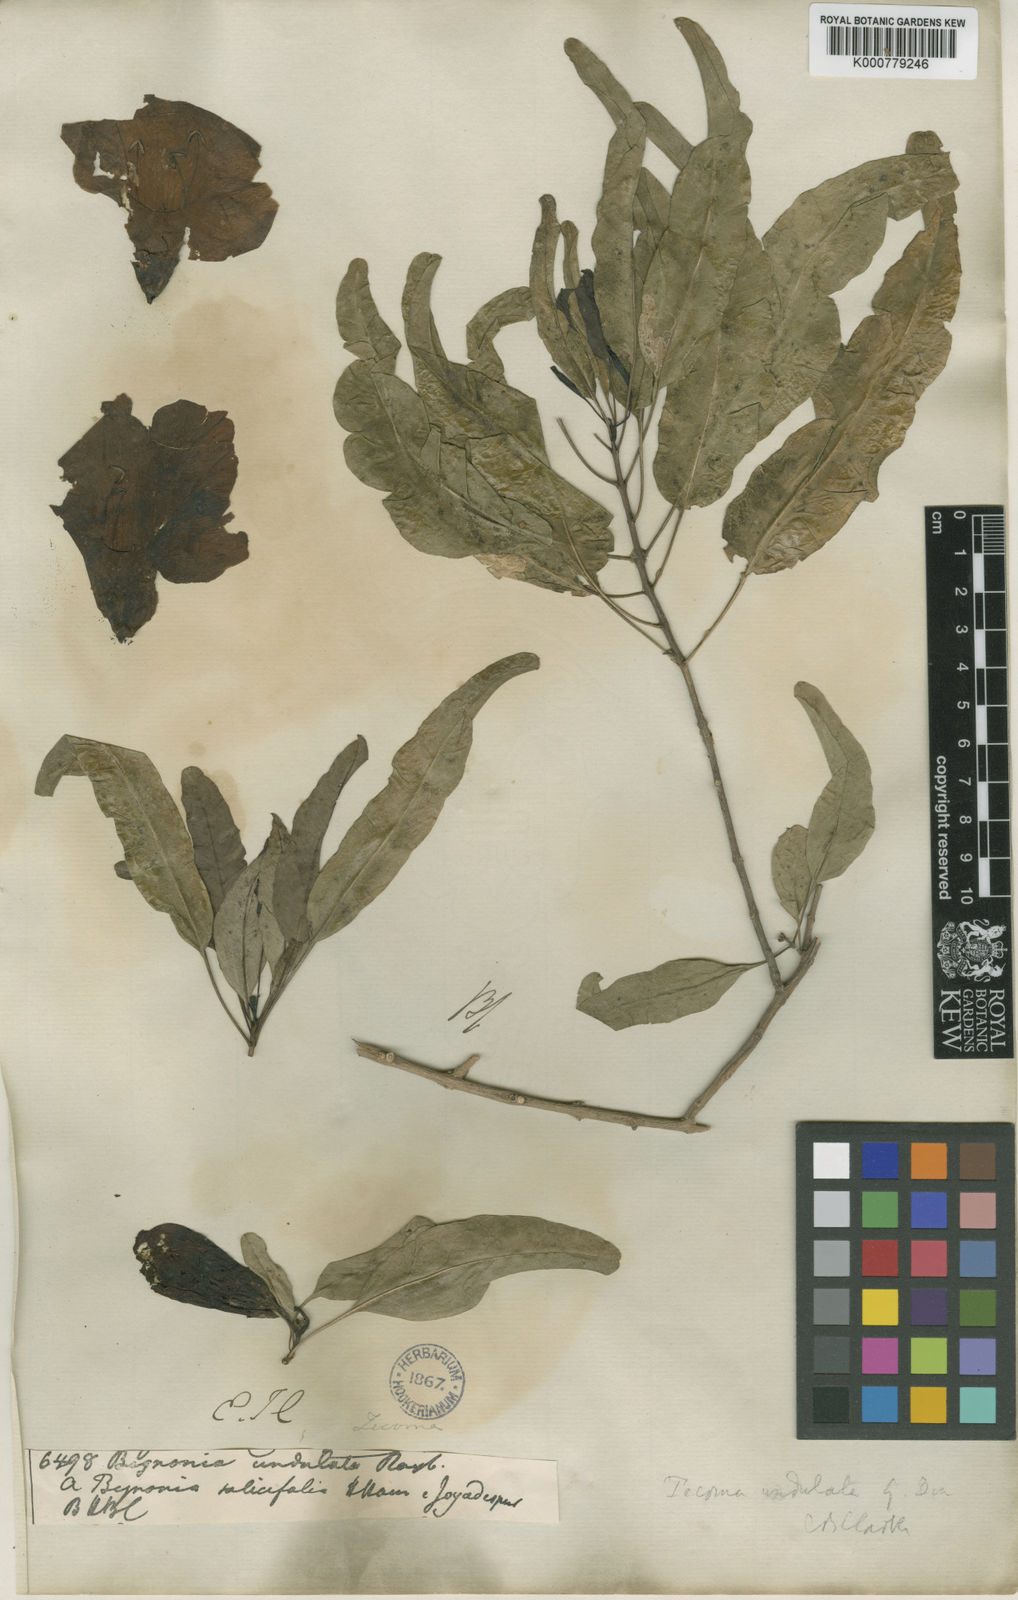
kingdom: Plantae
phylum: Tracheophyta
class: Magnoliopsida
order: Lamiales
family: Bignoniaceae
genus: Tecomella
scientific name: Tecomella undulata
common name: Desert teak
